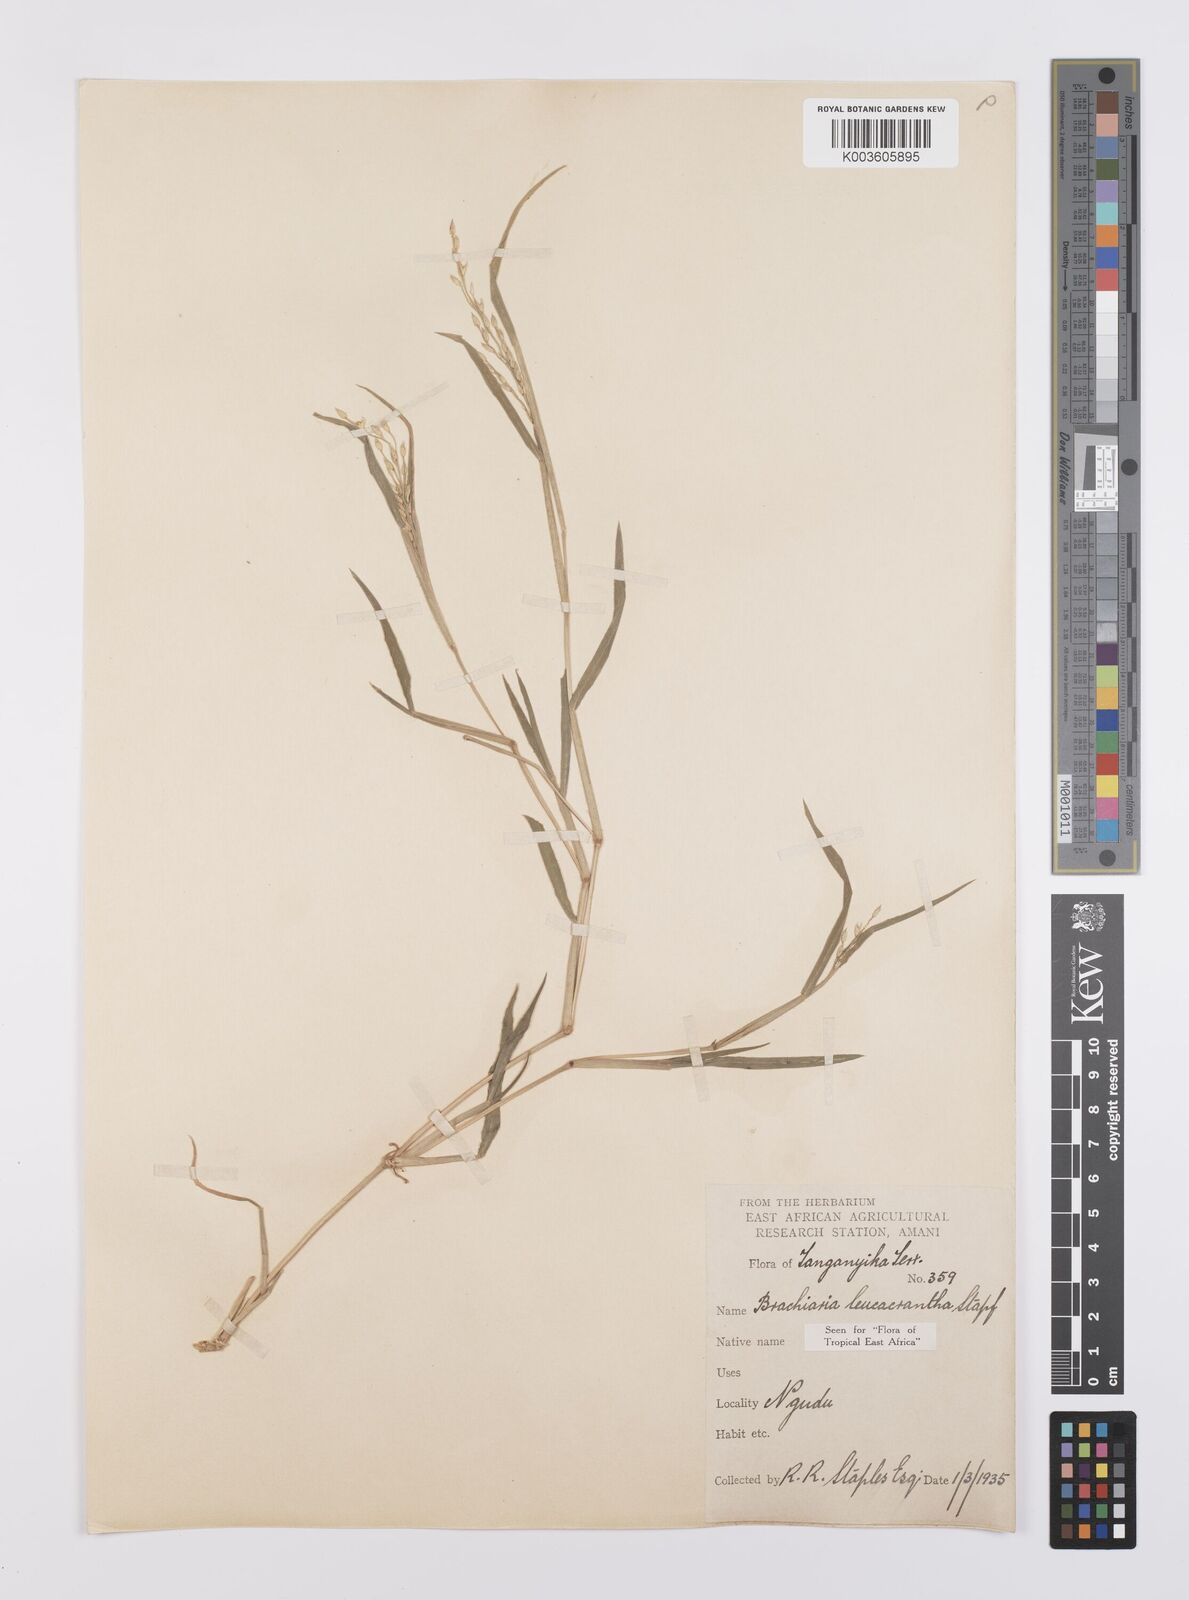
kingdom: Plantae
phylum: Tracheophyta
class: Liliopsida
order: Poales
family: Poaceae
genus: Urochloa
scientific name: Urochloa xantholeuca
